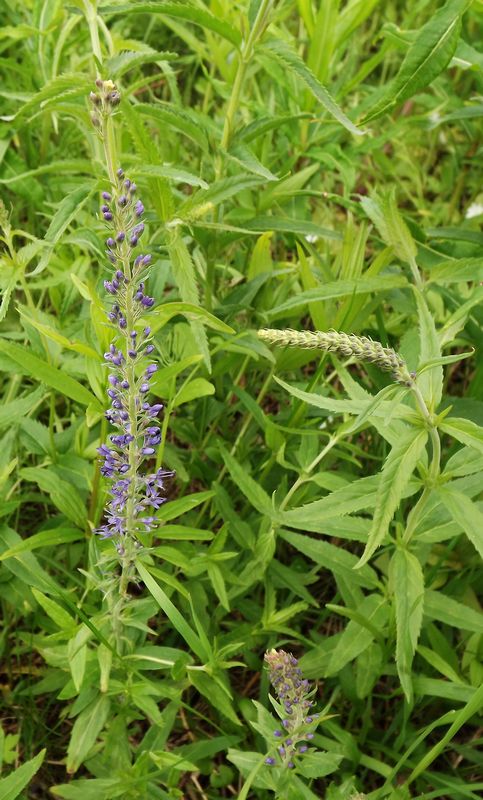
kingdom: Plantae
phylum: Tracheophyta
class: Magnoliopsida
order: Lamiales
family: Plantaginaceae
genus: Veronica
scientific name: Veronica longifolia
